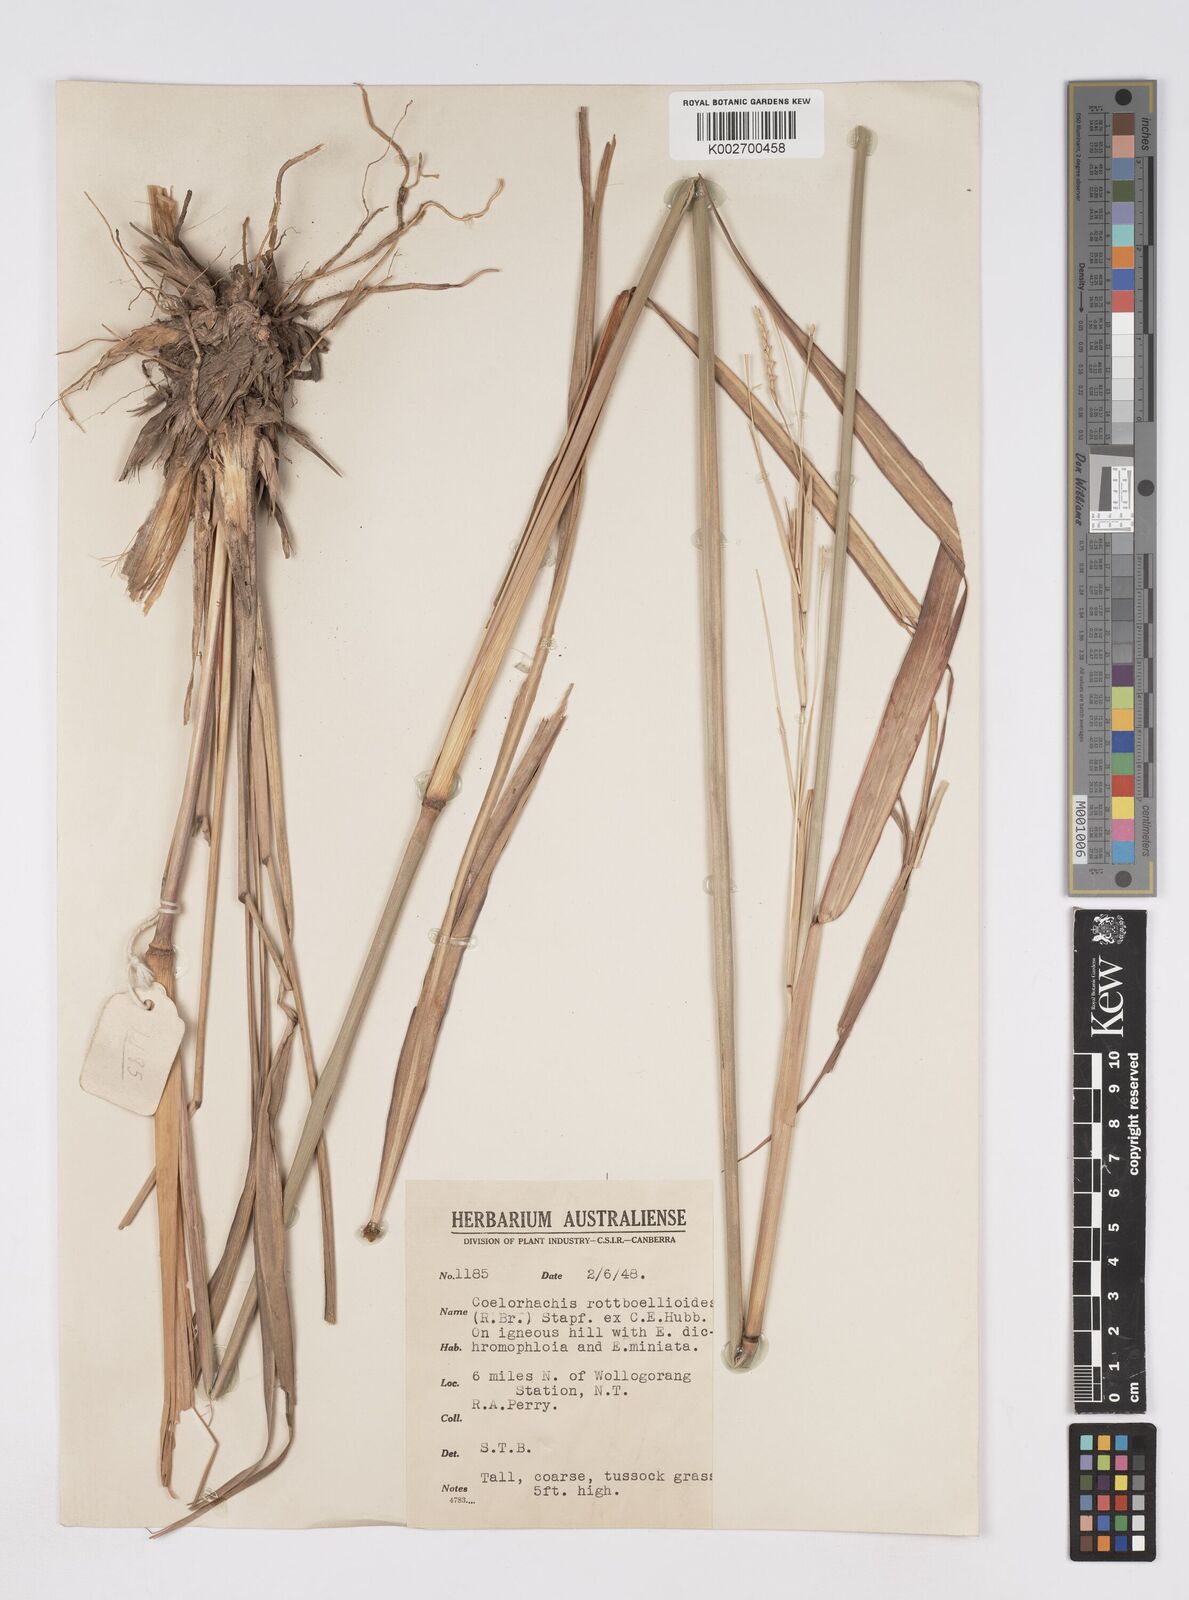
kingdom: Plantae
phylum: Tracheophyta
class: Liliopsida
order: Poales
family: Poaceae
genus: Rottboellia
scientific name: Rottboellia rottboellioides
